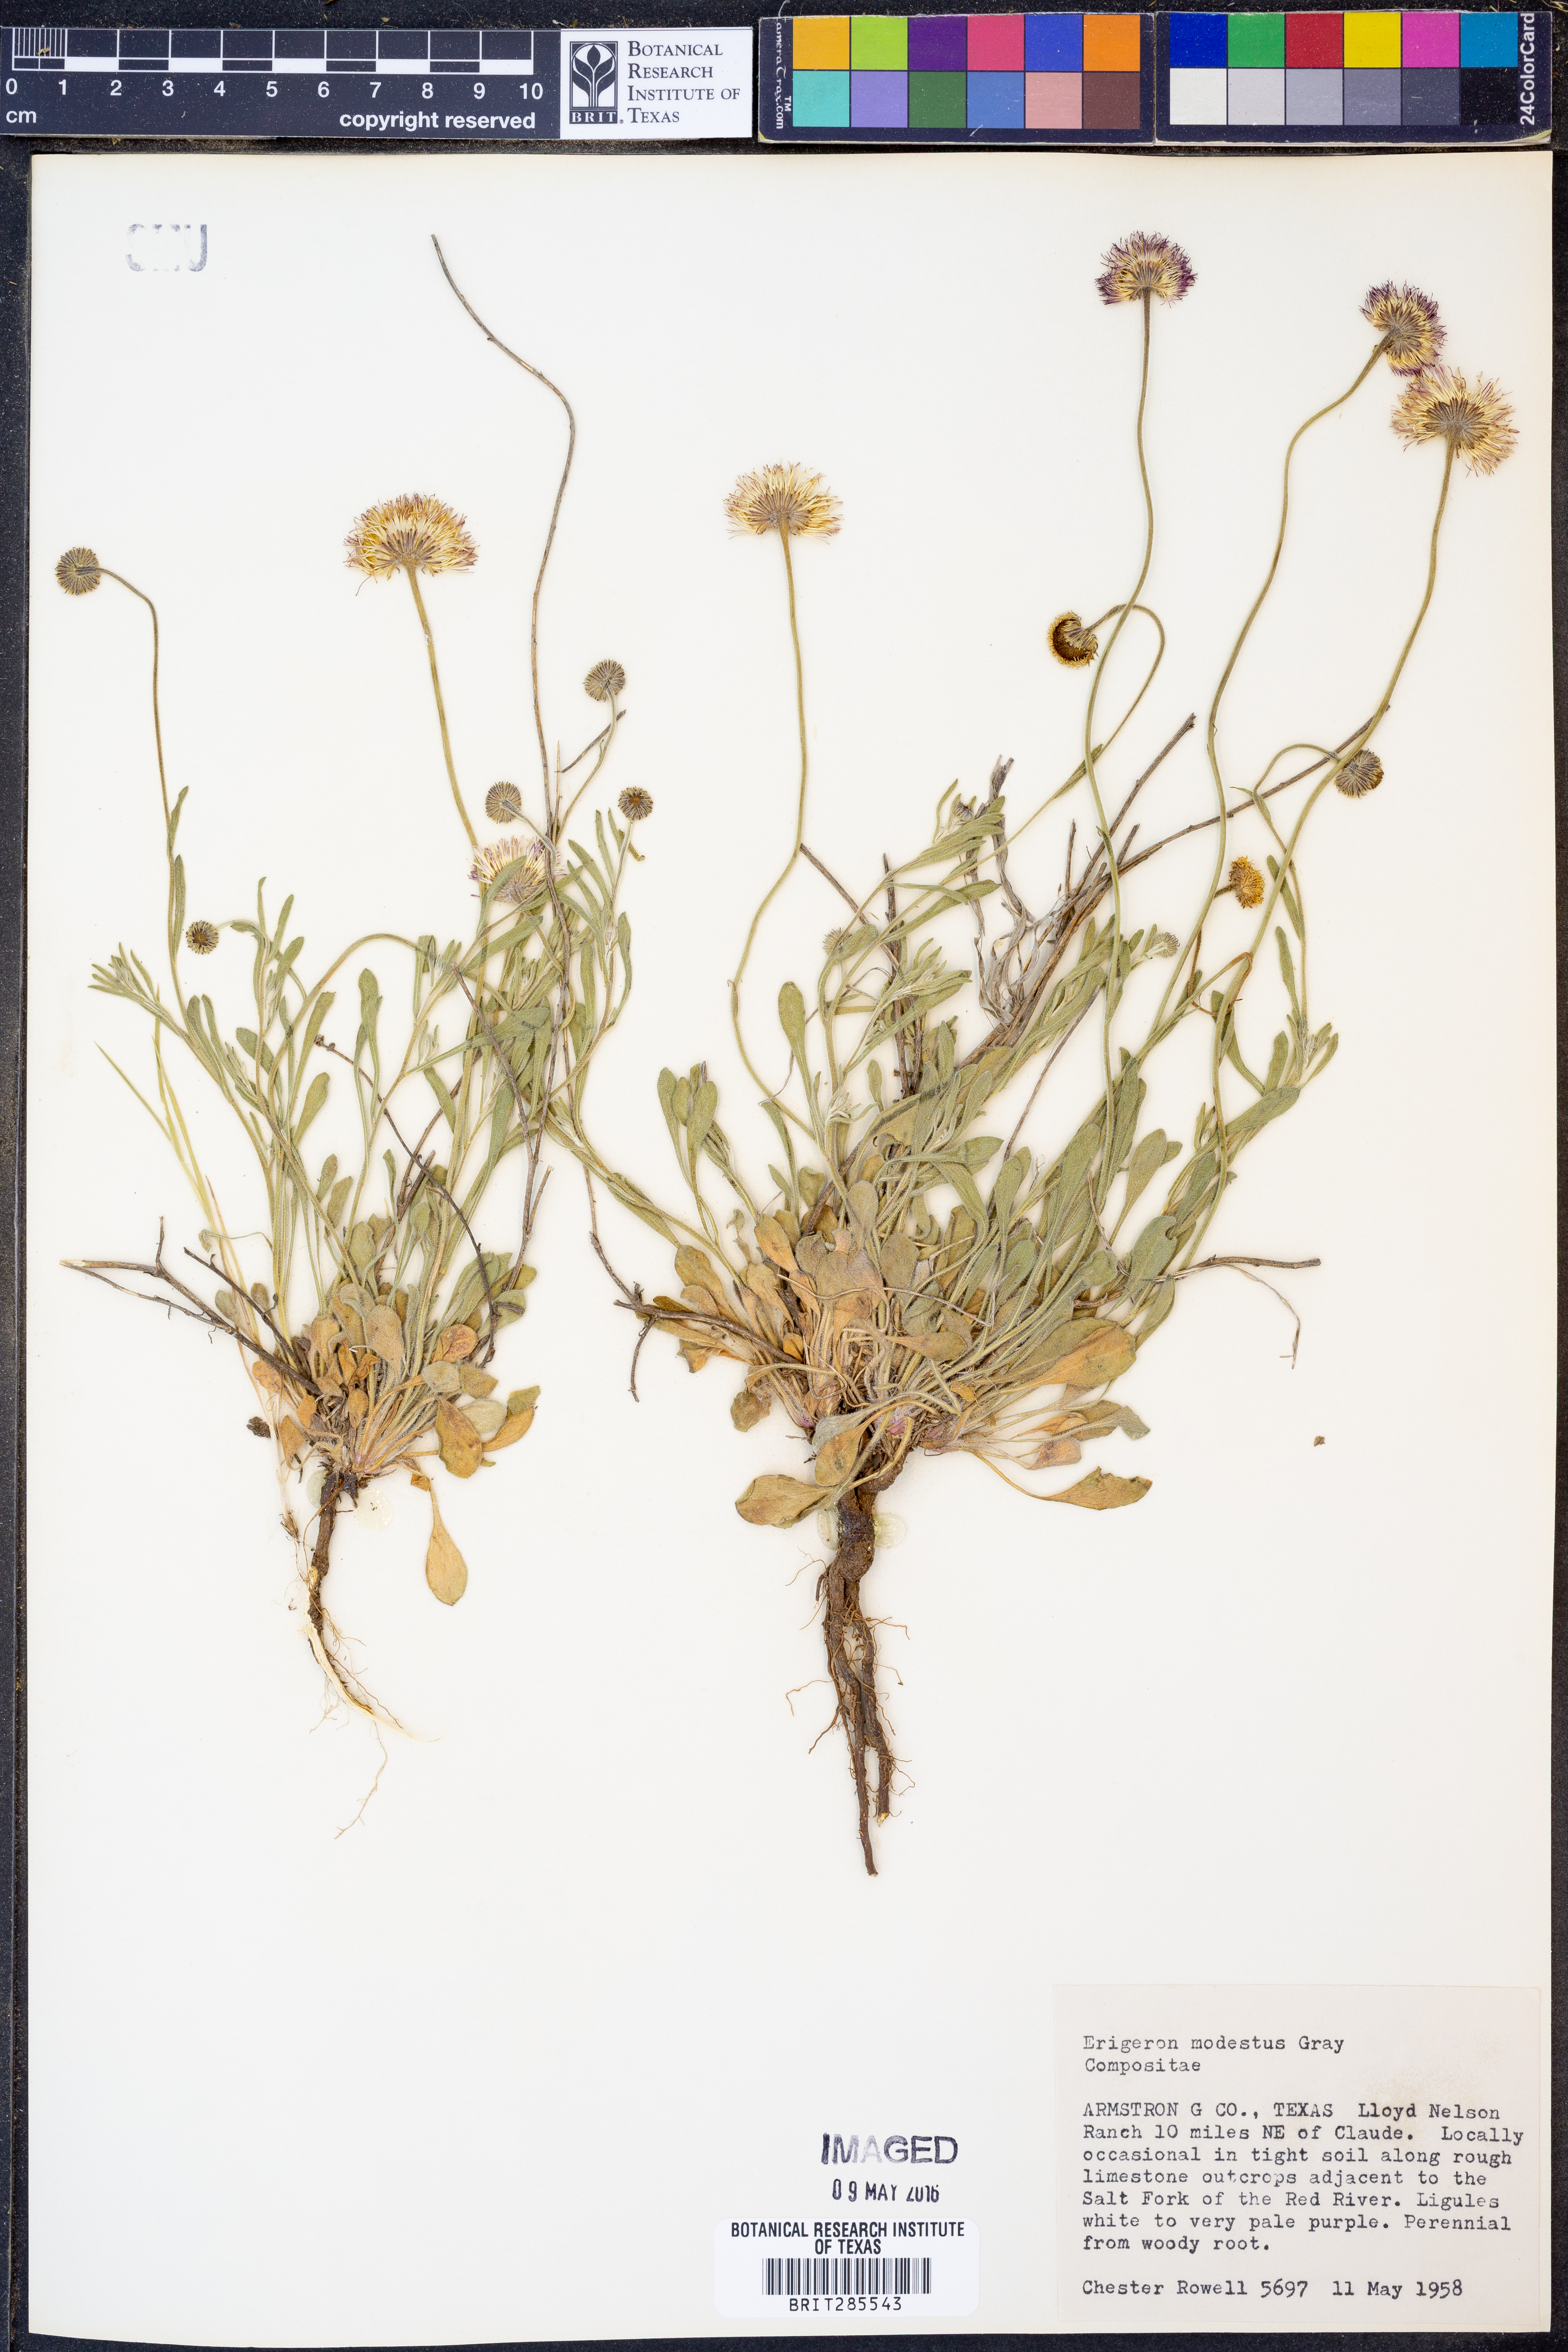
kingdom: Plantae
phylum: Tracheophyta
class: Magnoliopsida
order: Asterales
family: Asteraceae
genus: Erigeron
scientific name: Erigeron modestus
